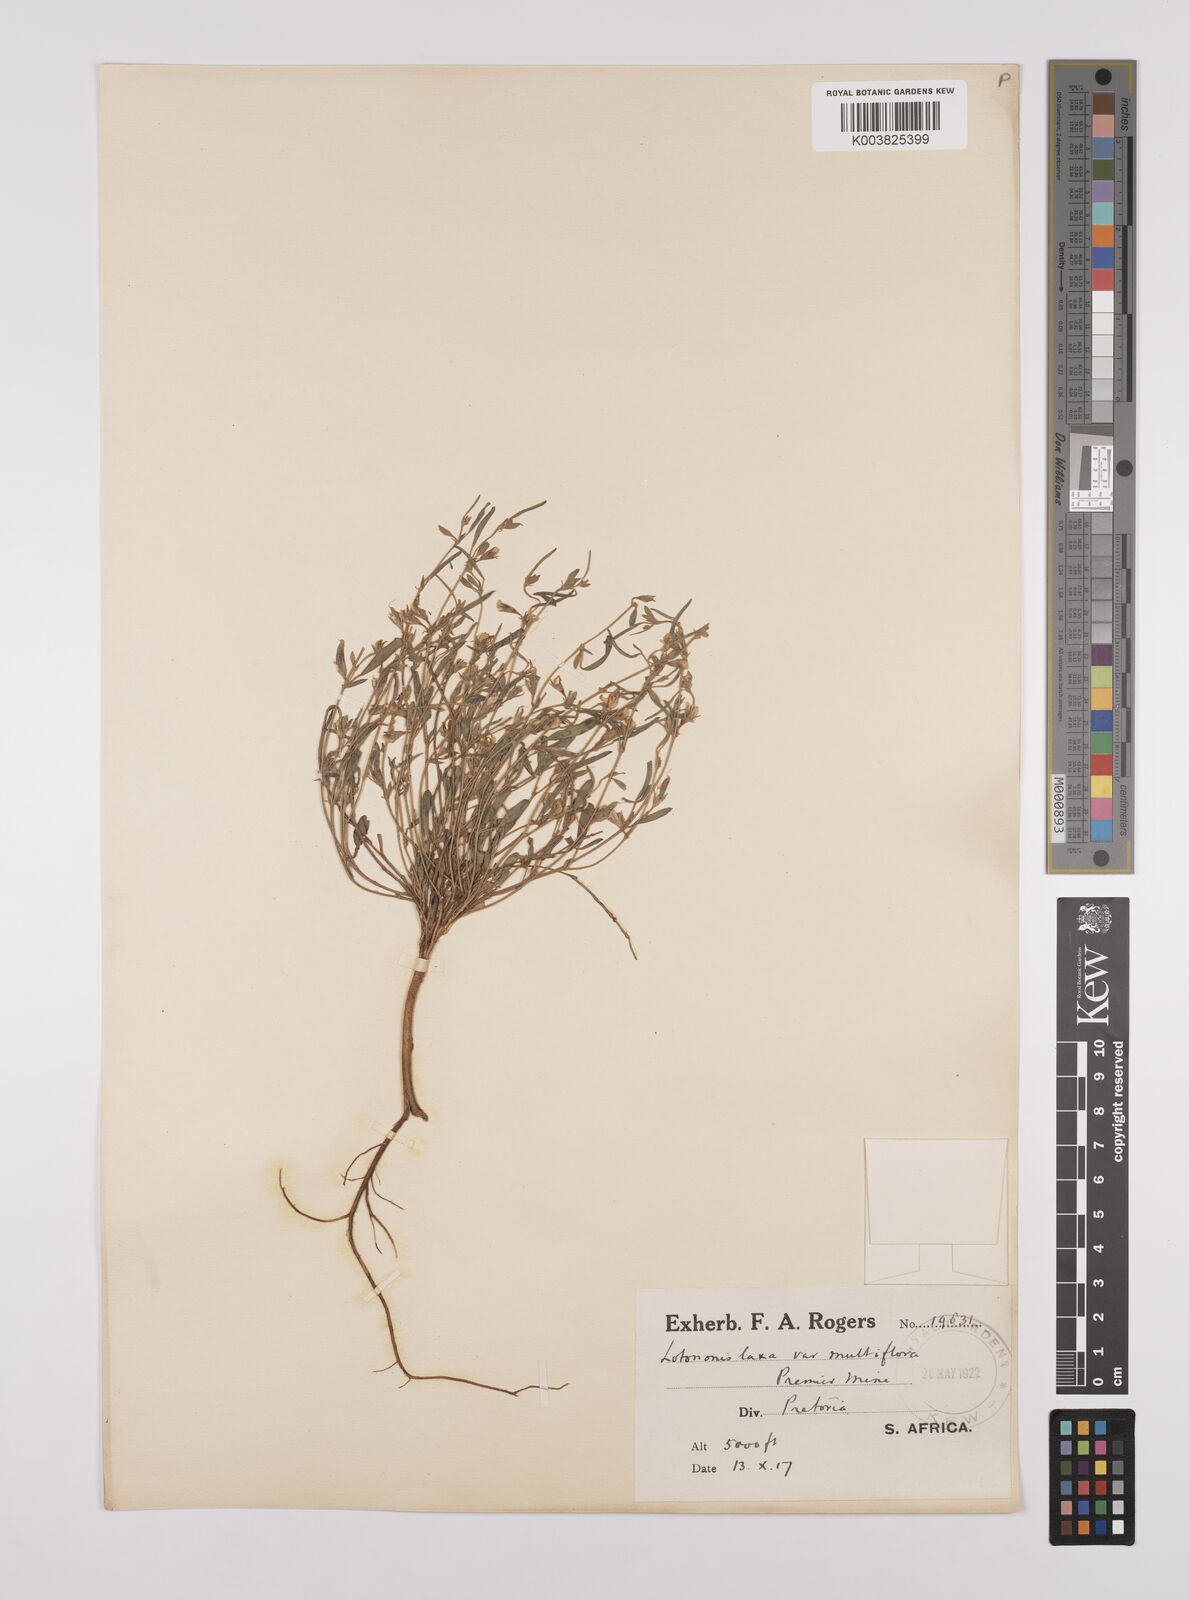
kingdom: Plantae
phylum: Tracheophyta
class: Magnoliopsida
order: Fabales
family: Fabaceae
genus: Lotononis
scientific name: Lotononis laxa
